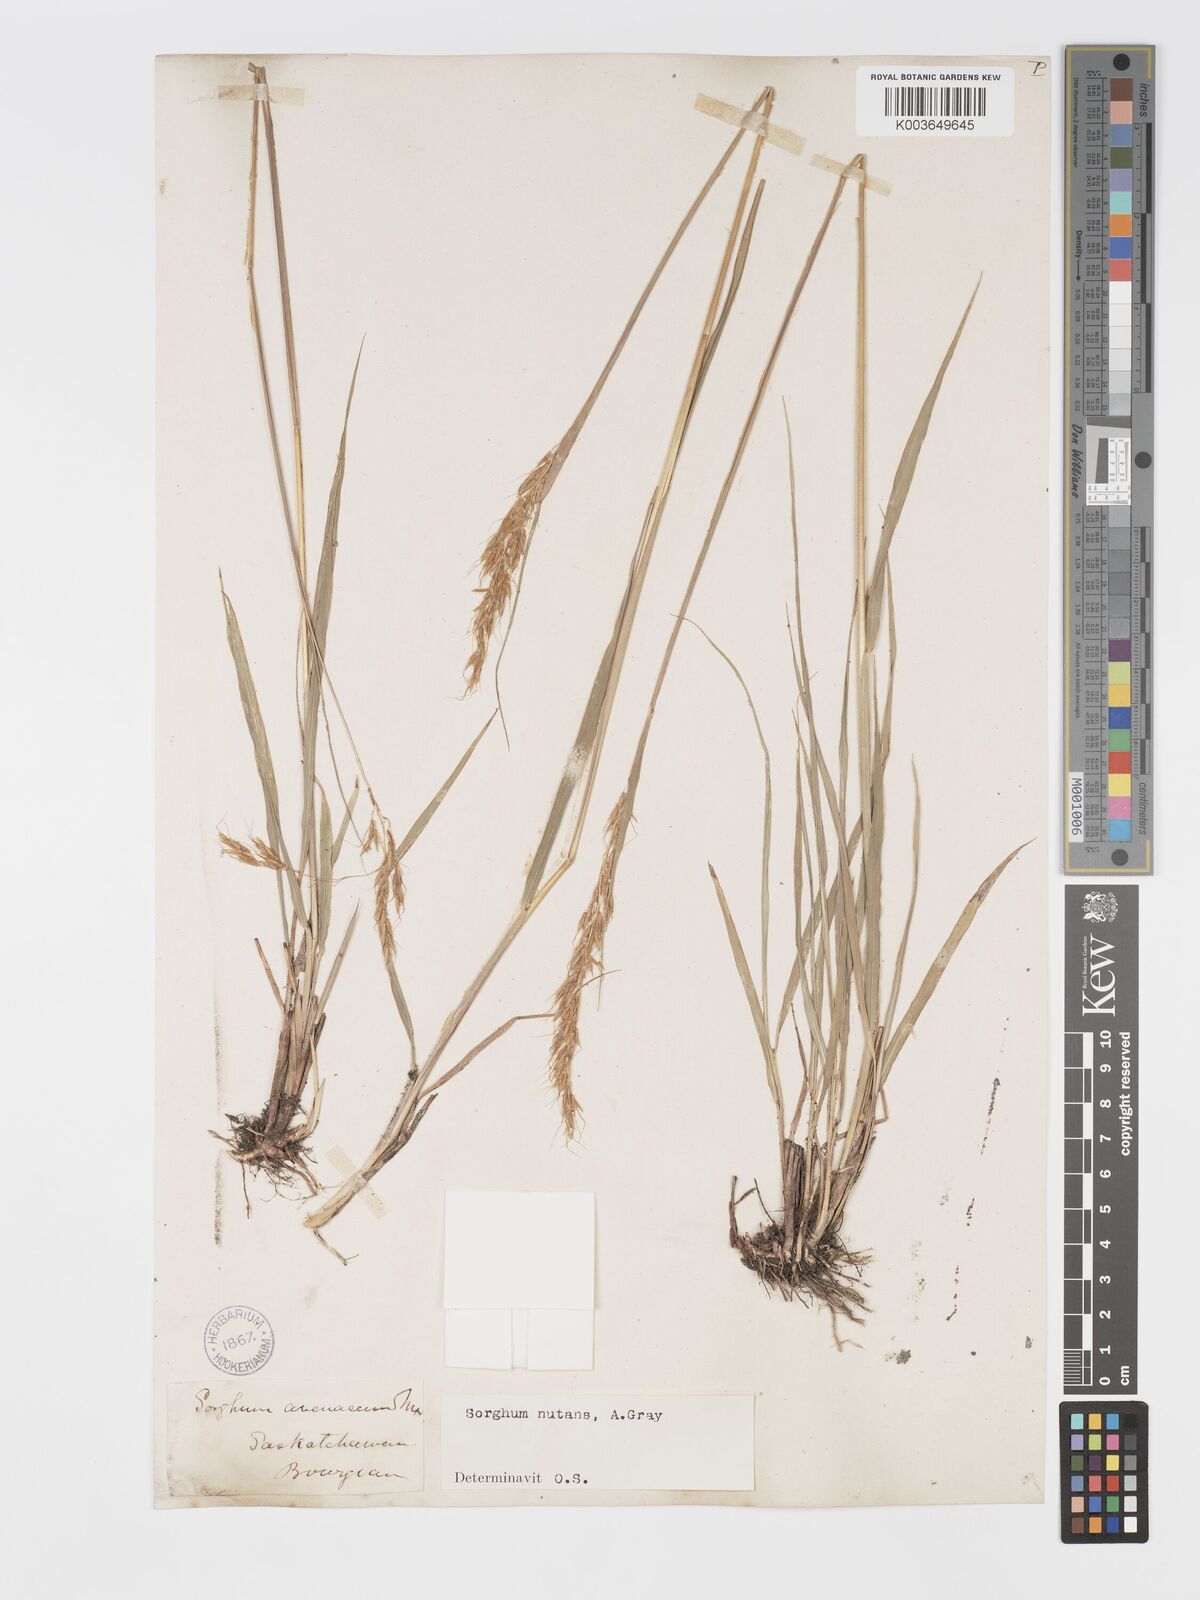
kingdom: Plantae
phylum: Tracheophyta
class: Liliopsida
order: Poales
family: Poaceae
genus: Sorghastrum
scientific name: Sorghastrum nutans
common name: Indian grass
